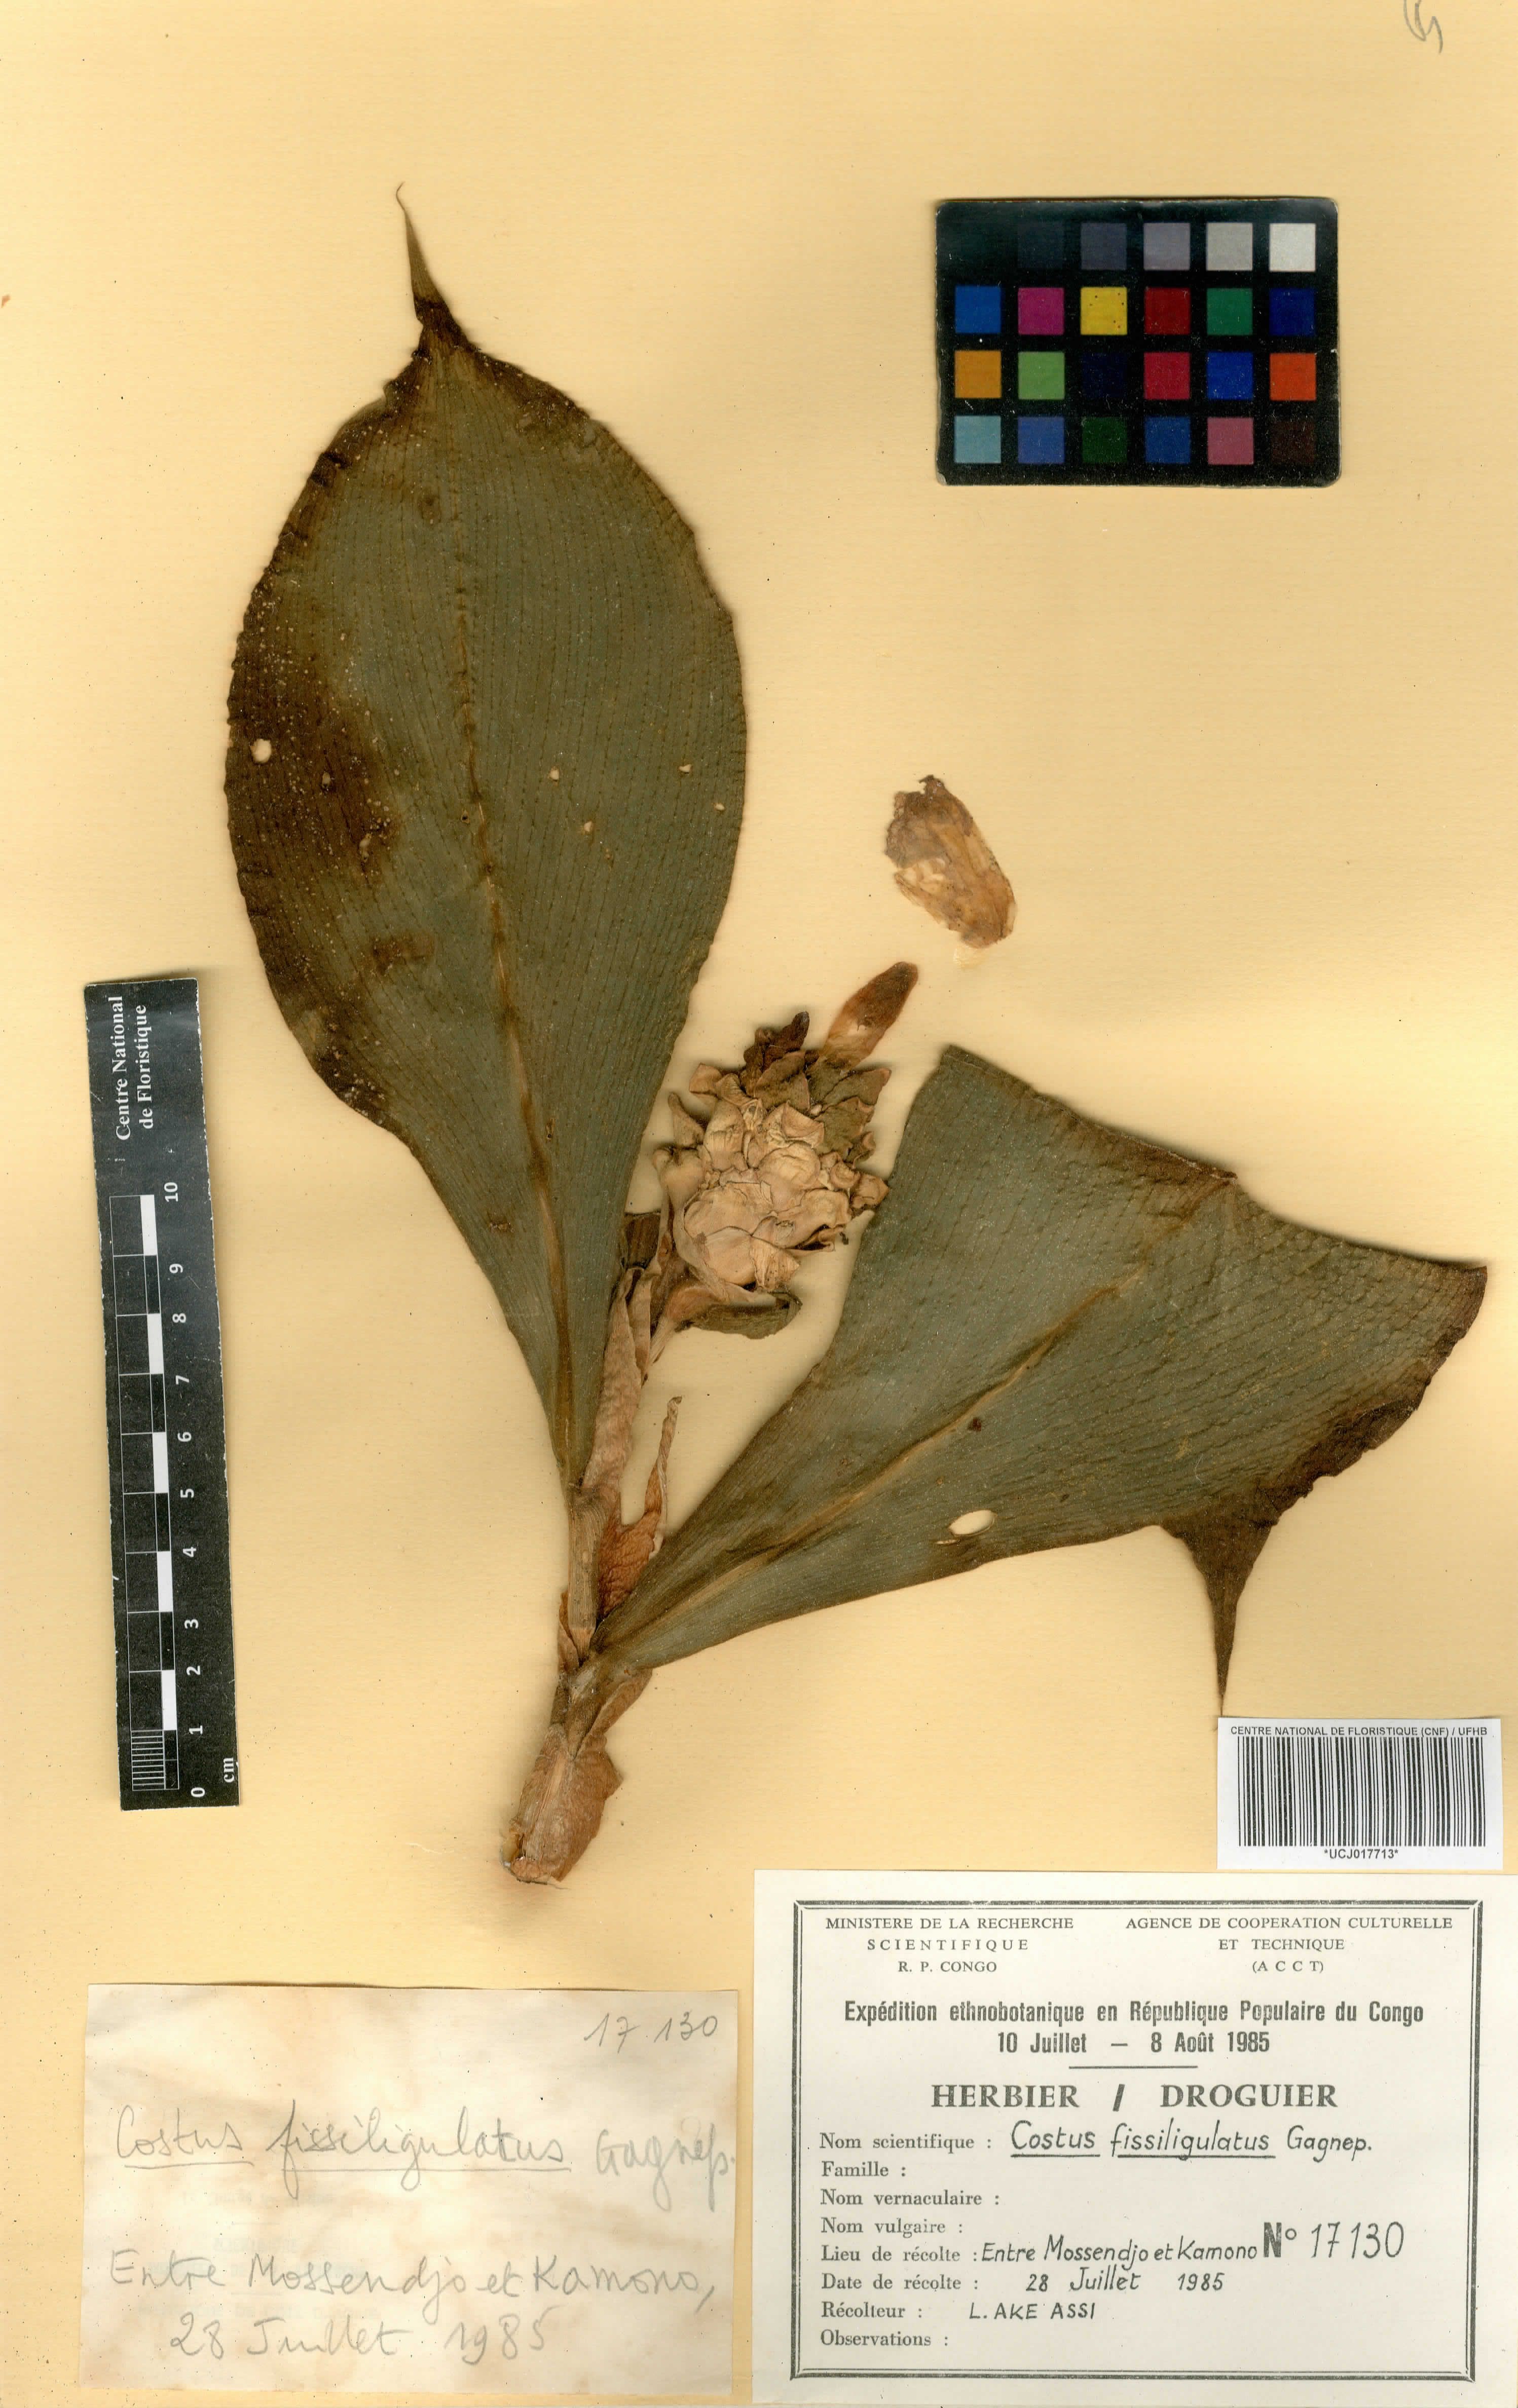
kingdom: Plantae
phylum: Tracheophyta
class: Liliopsida
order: Zingiberales
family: Costaceae
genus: Costus
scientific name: Costus phyllocephalus
